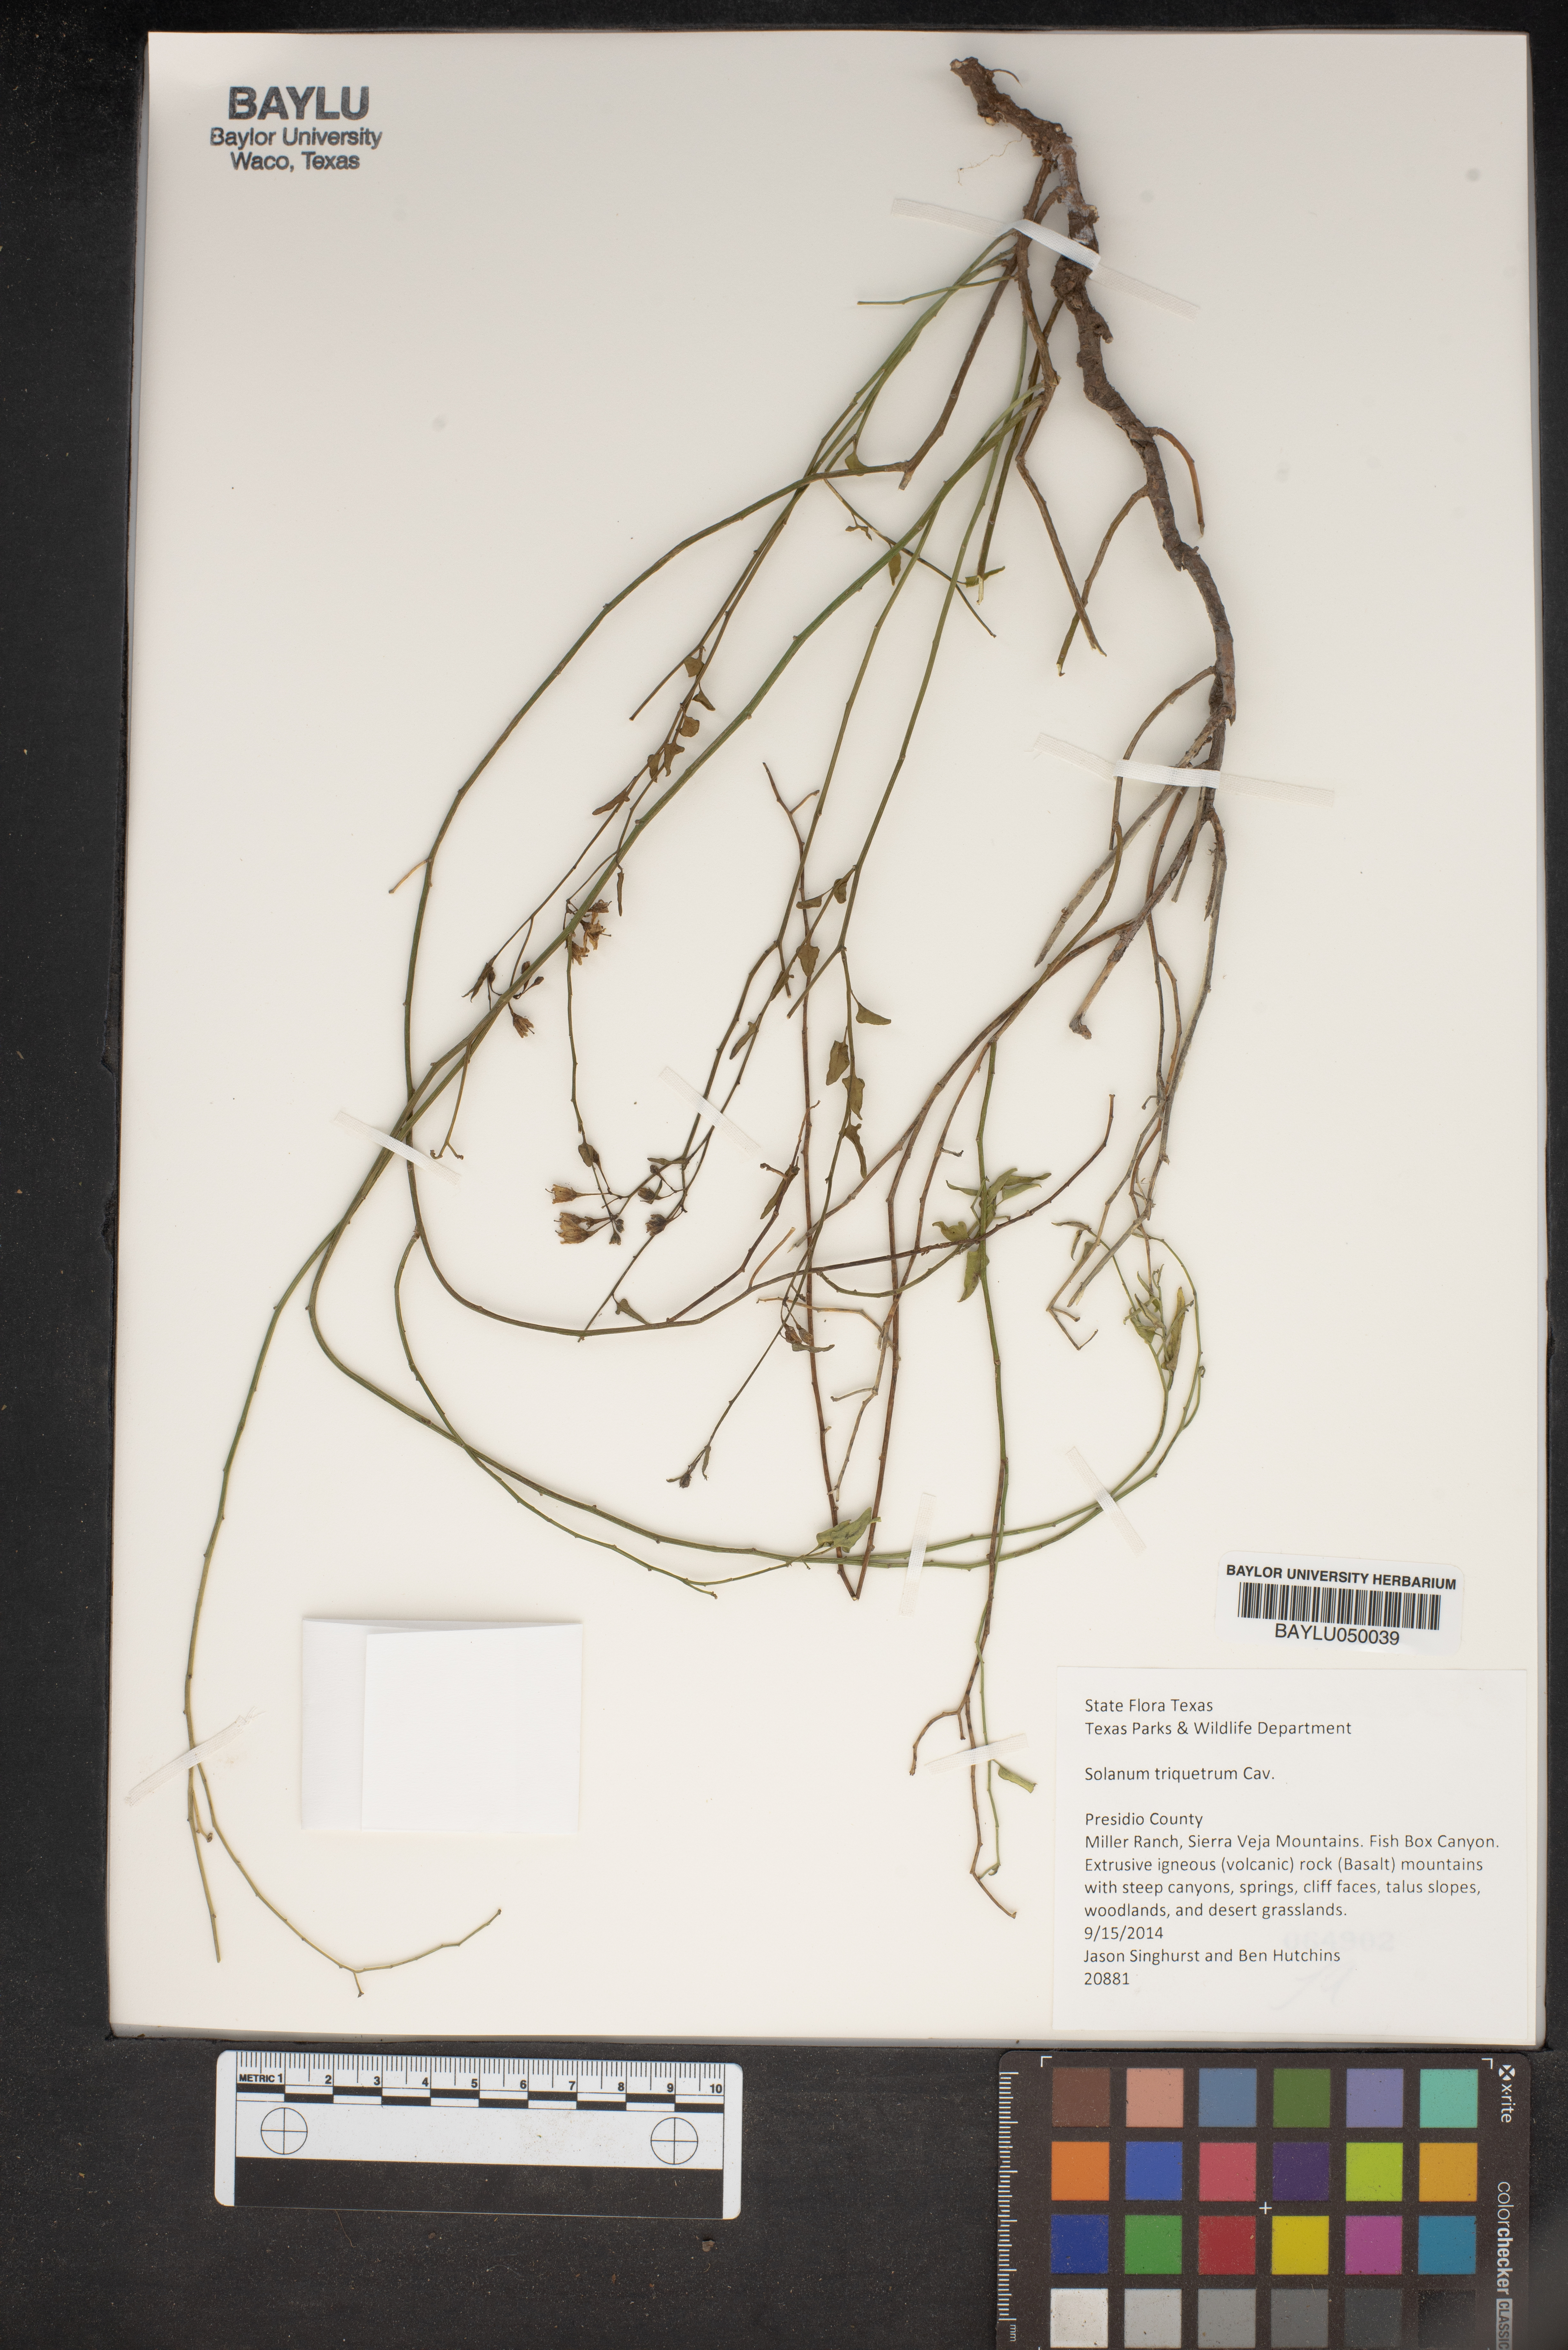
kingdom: Plantae
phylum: Tracheophyta
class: Magnoliopsida
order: Solanales
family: Solanaceae
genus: Solanum
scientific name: Solanum triquetrum
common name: Texas nightshade
